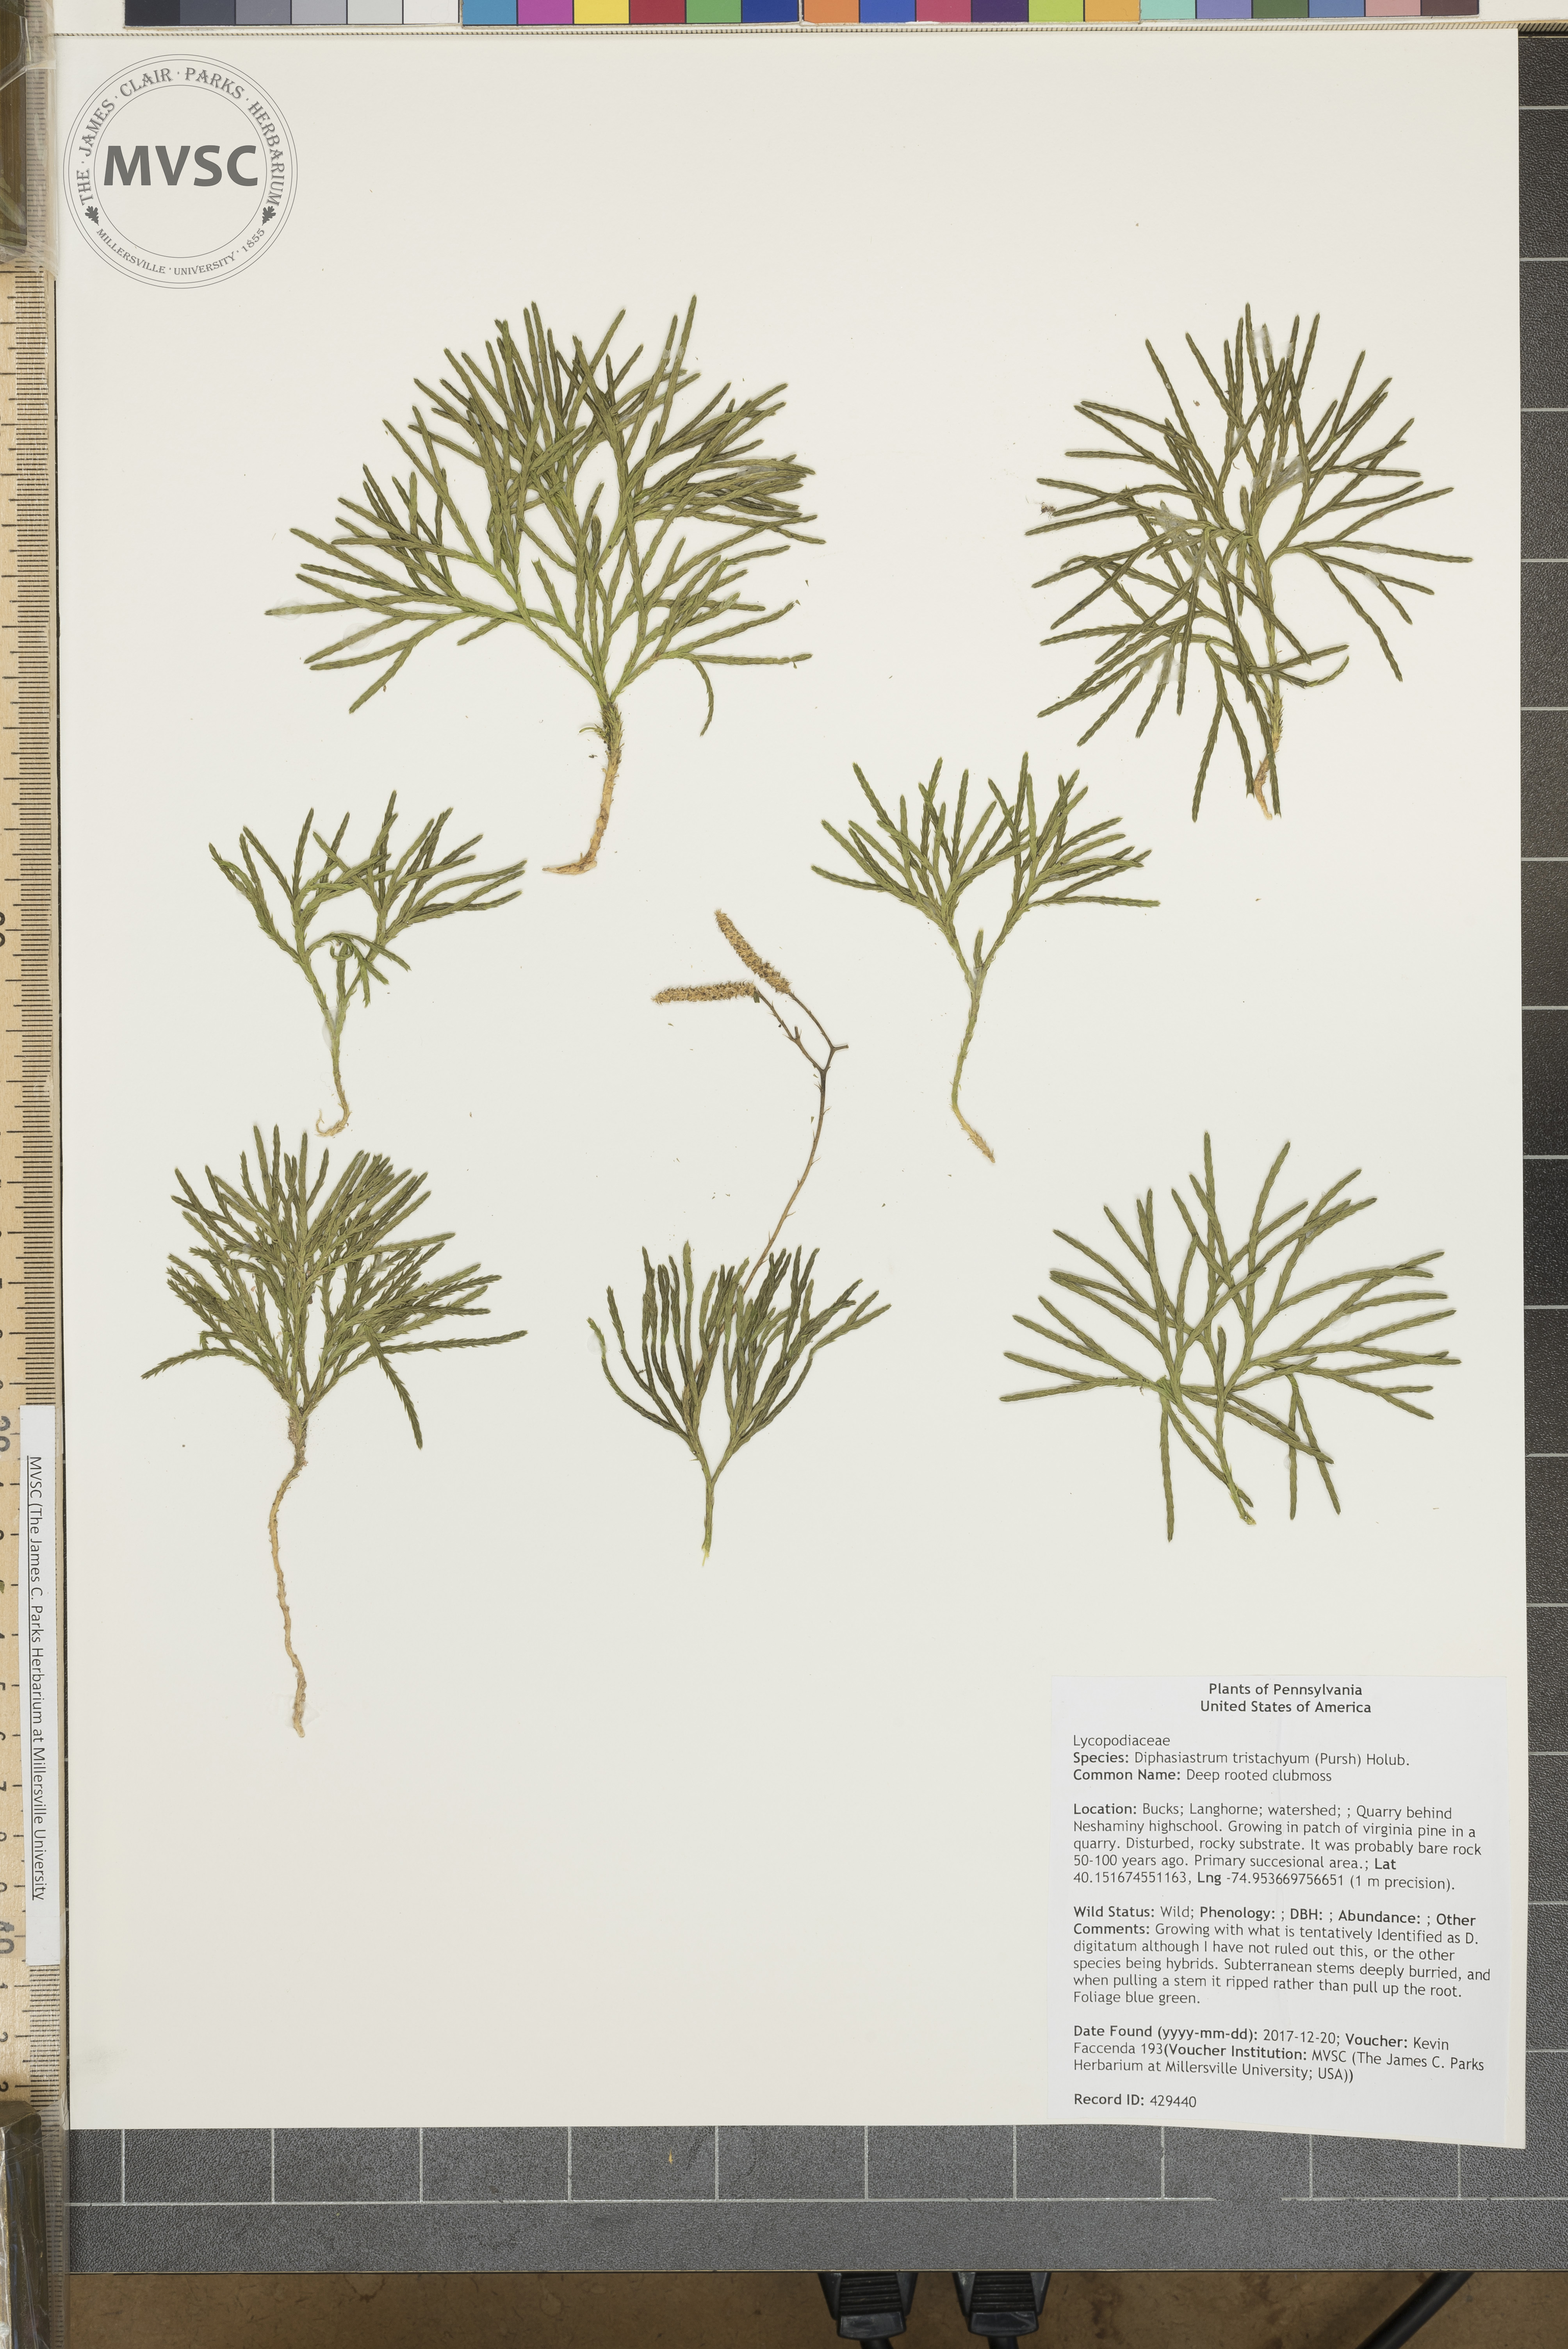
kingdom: Plantae
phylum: Tracheophyta
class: Lycopodiopsida
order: Lycopodiales
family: Lycopodiaceae
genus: Diphasiastrum
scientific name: Diphasiastrum tristachyum
